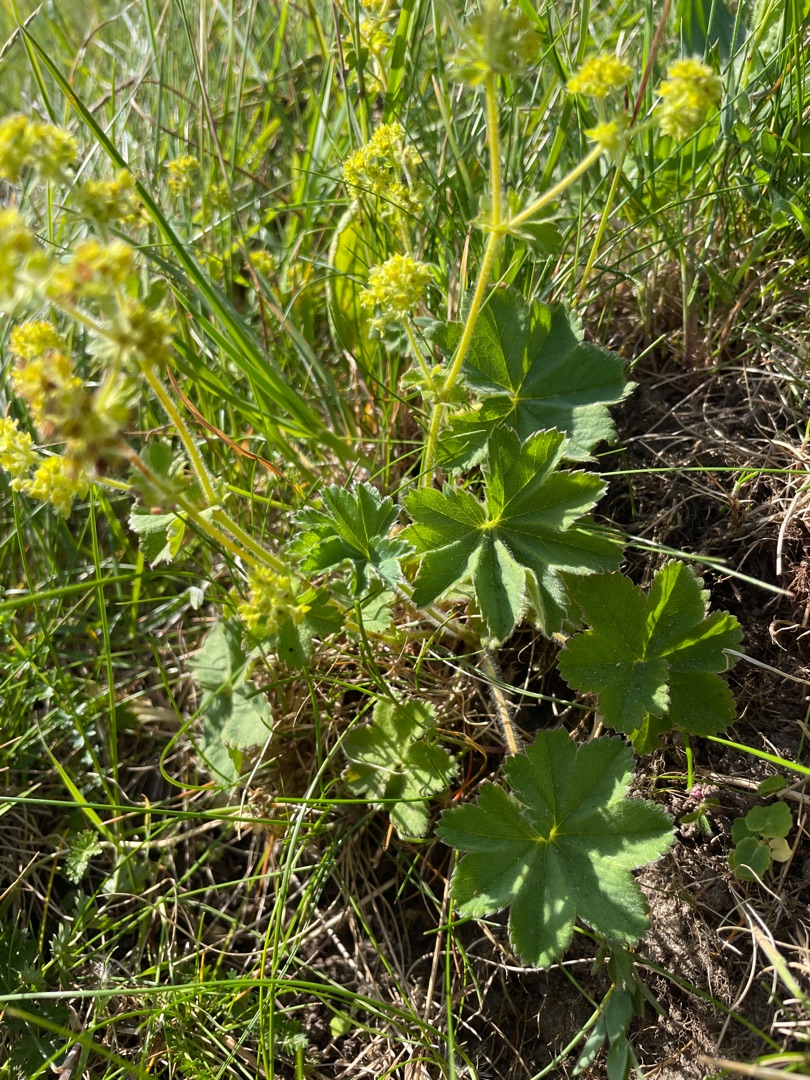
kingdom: Plantae
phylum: Tracheophyta
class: Magnoliopsida
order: Rosales
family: Rosaceae
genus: Alchemilla
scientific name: Alchemilla glaucescens
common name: Blågrøn løvefod
